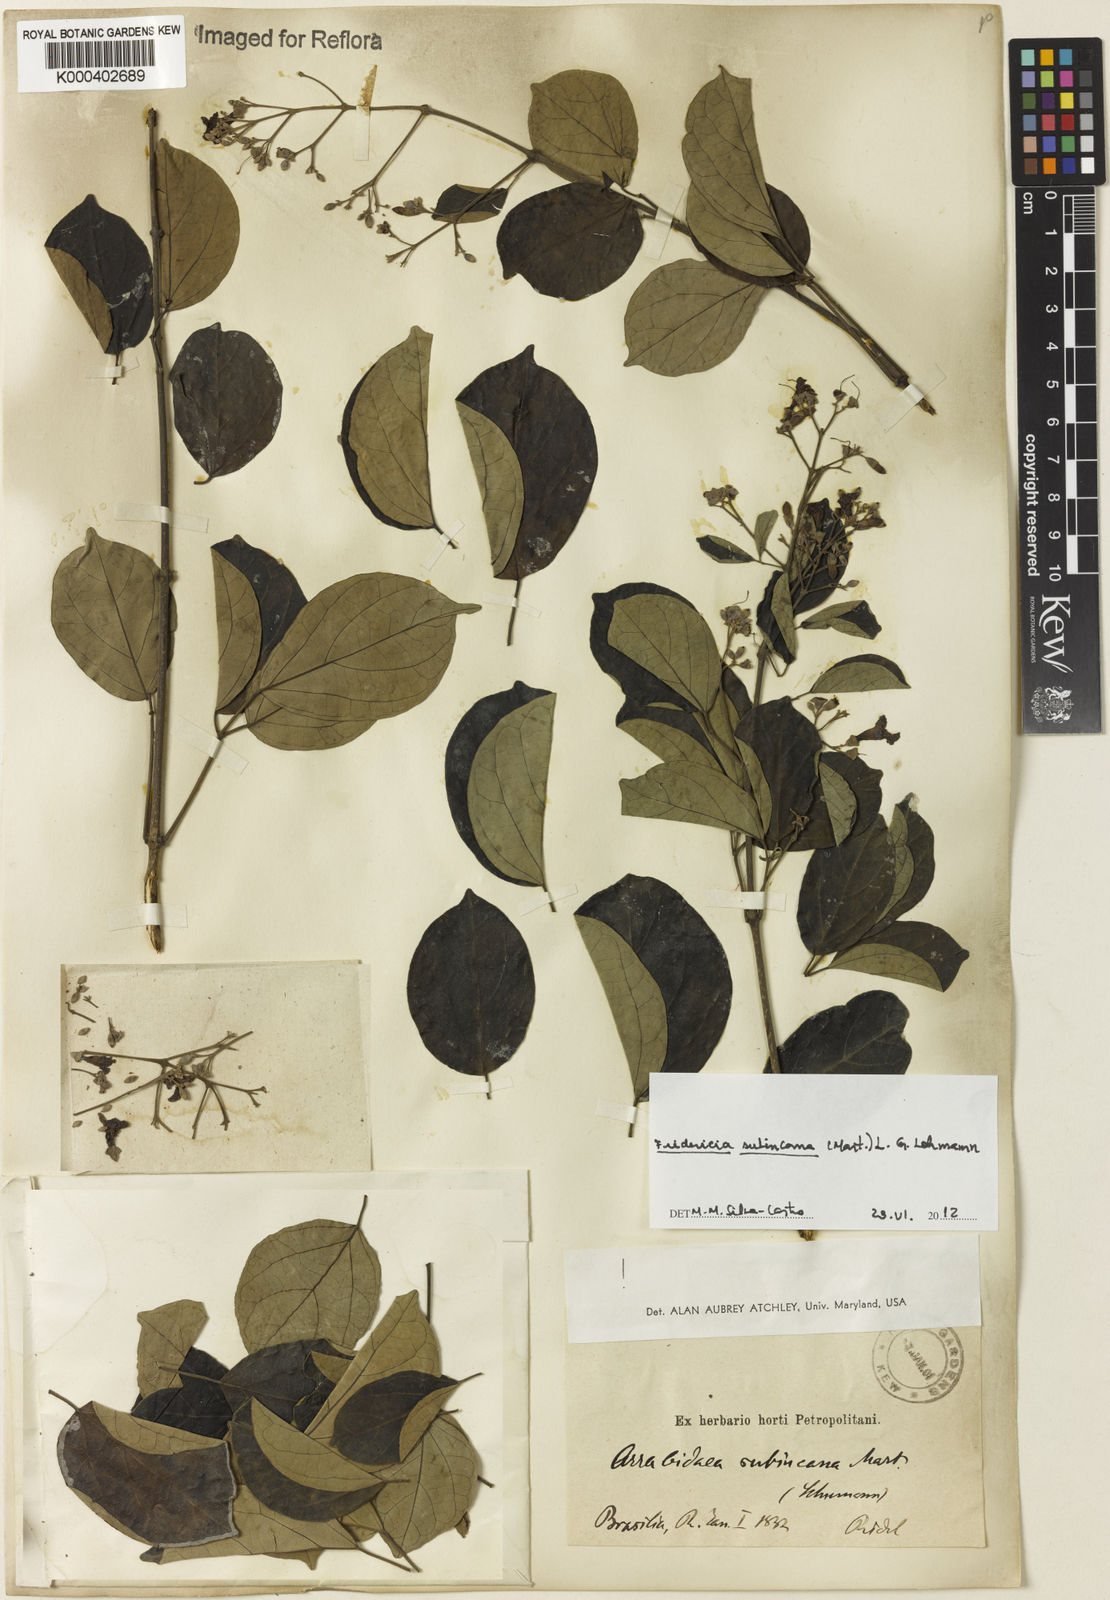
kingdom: Plantae
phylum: Tracheophyta
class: Magnoliopsida
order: Lamiales
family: Bignoniaceae
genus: Fridericia
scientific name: Fridericia subincana
